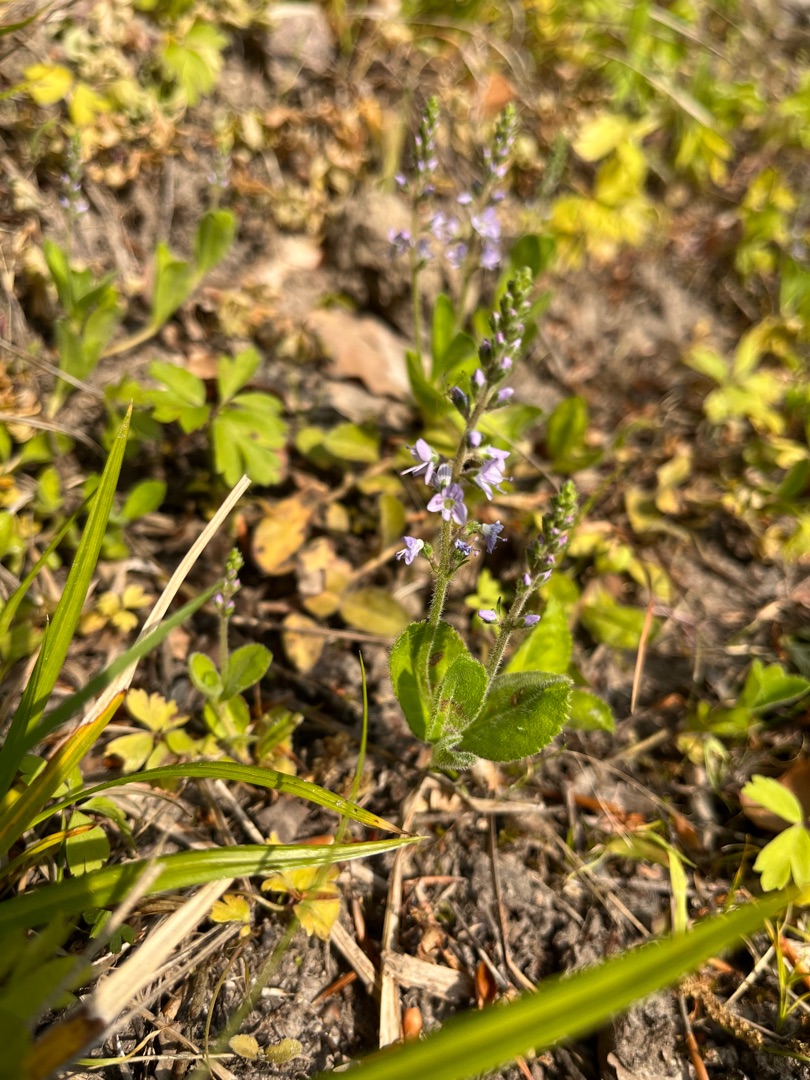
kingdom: Plantae
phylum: Tracheophyta
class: Magnoliopsida
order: Lamiales
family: Plantaginaceae
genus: Veronica
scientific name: Veronica officinalis
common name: Læge-ærenpris
